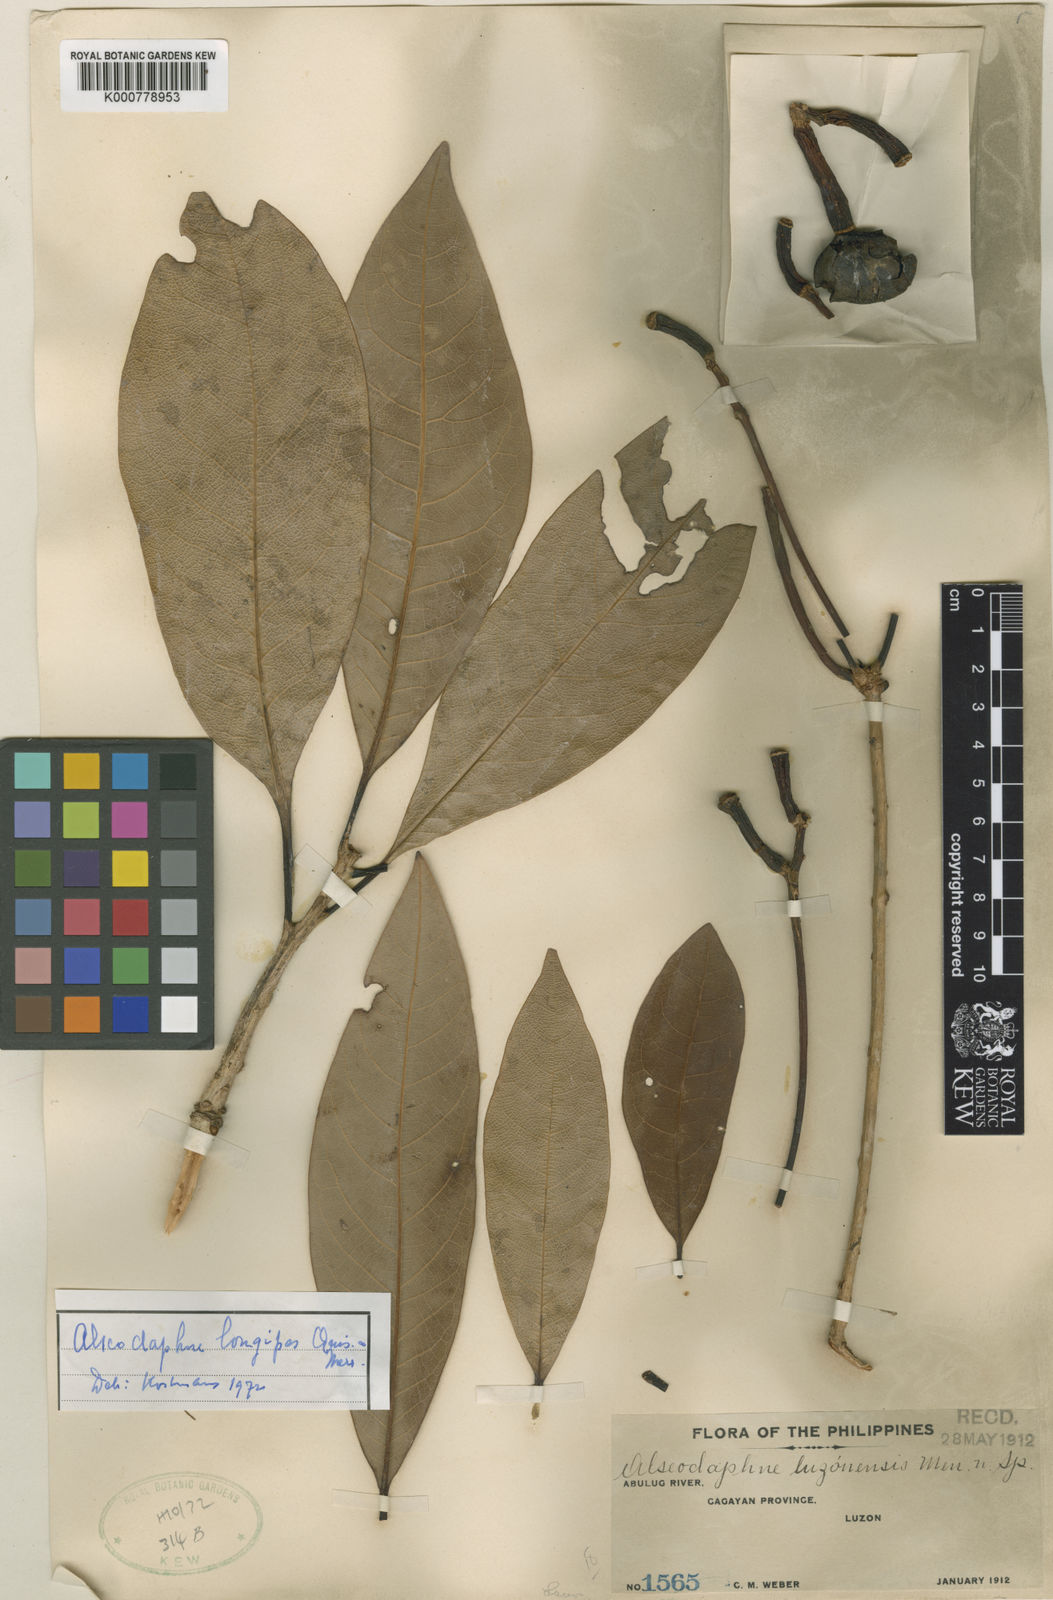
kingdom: Plantae
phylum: Tracheophyta
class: Magnoliopsida
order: Laurales
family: Lauraceae
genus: Alseodaphne
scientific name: Alseodaphne philippinensis
